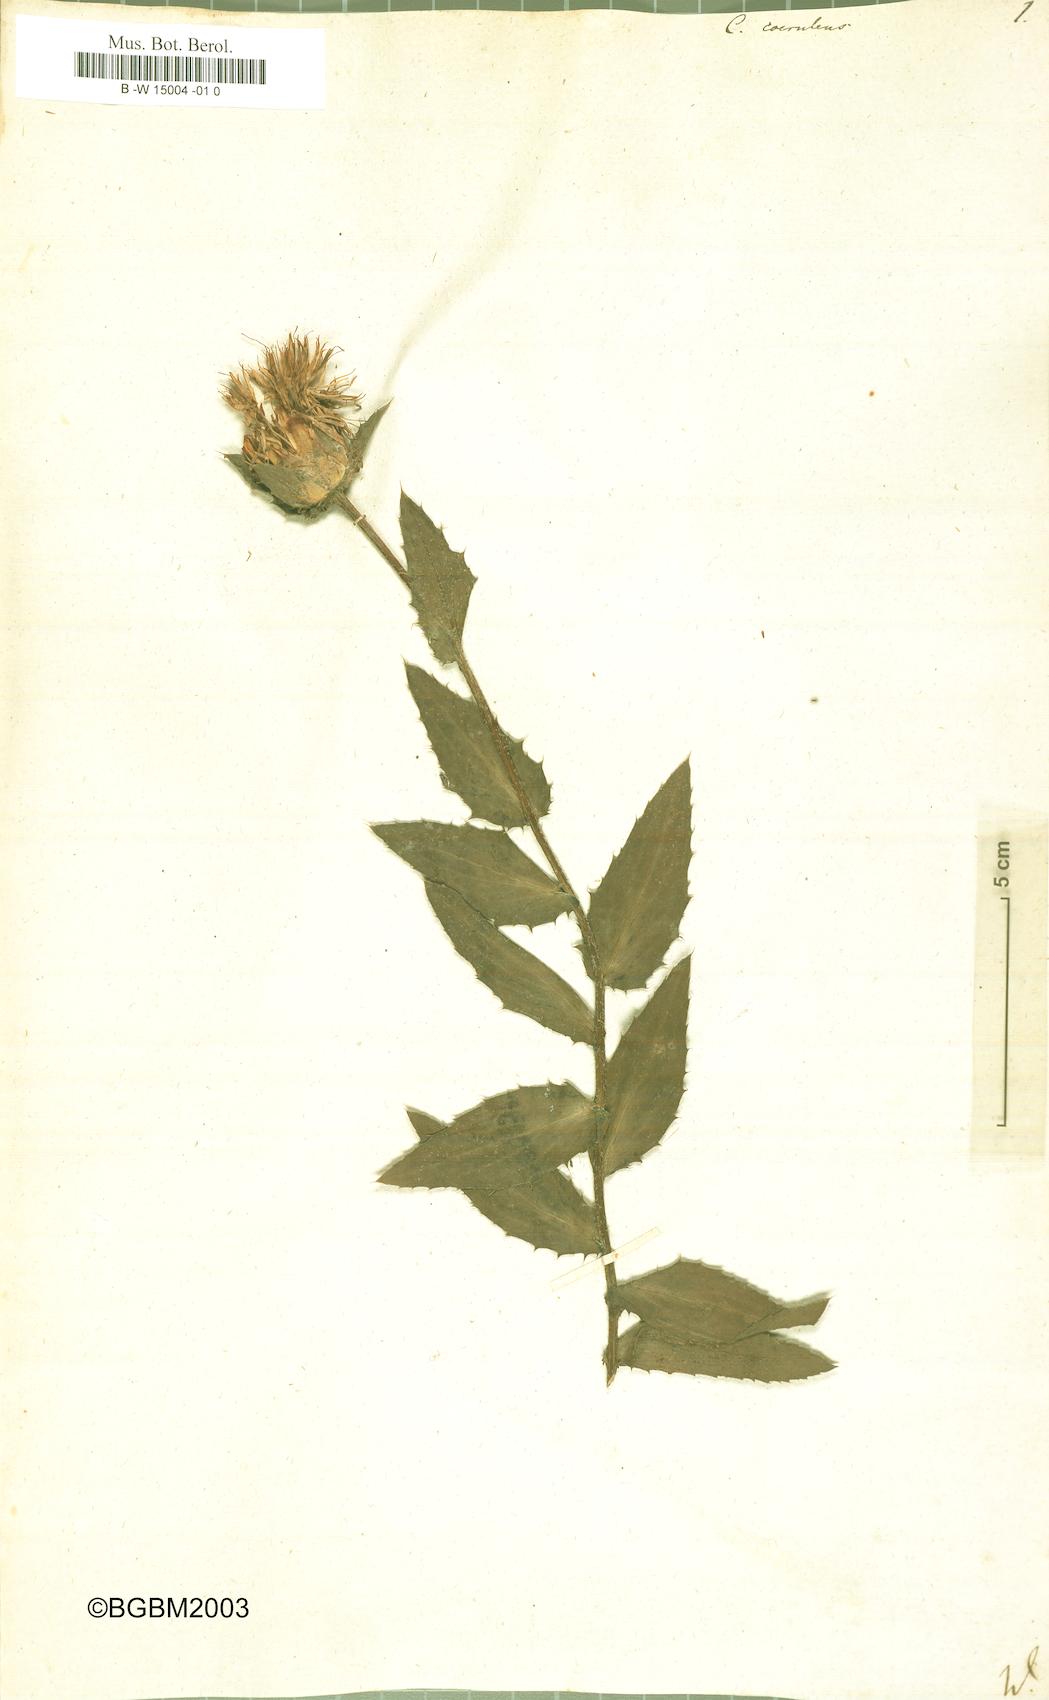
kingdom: Plantae
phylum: Tracheophyta
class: Magnoliopsida
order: Asterales
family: Asteraceae
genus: Carduncellus
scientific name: Carduncellus caeruleus
